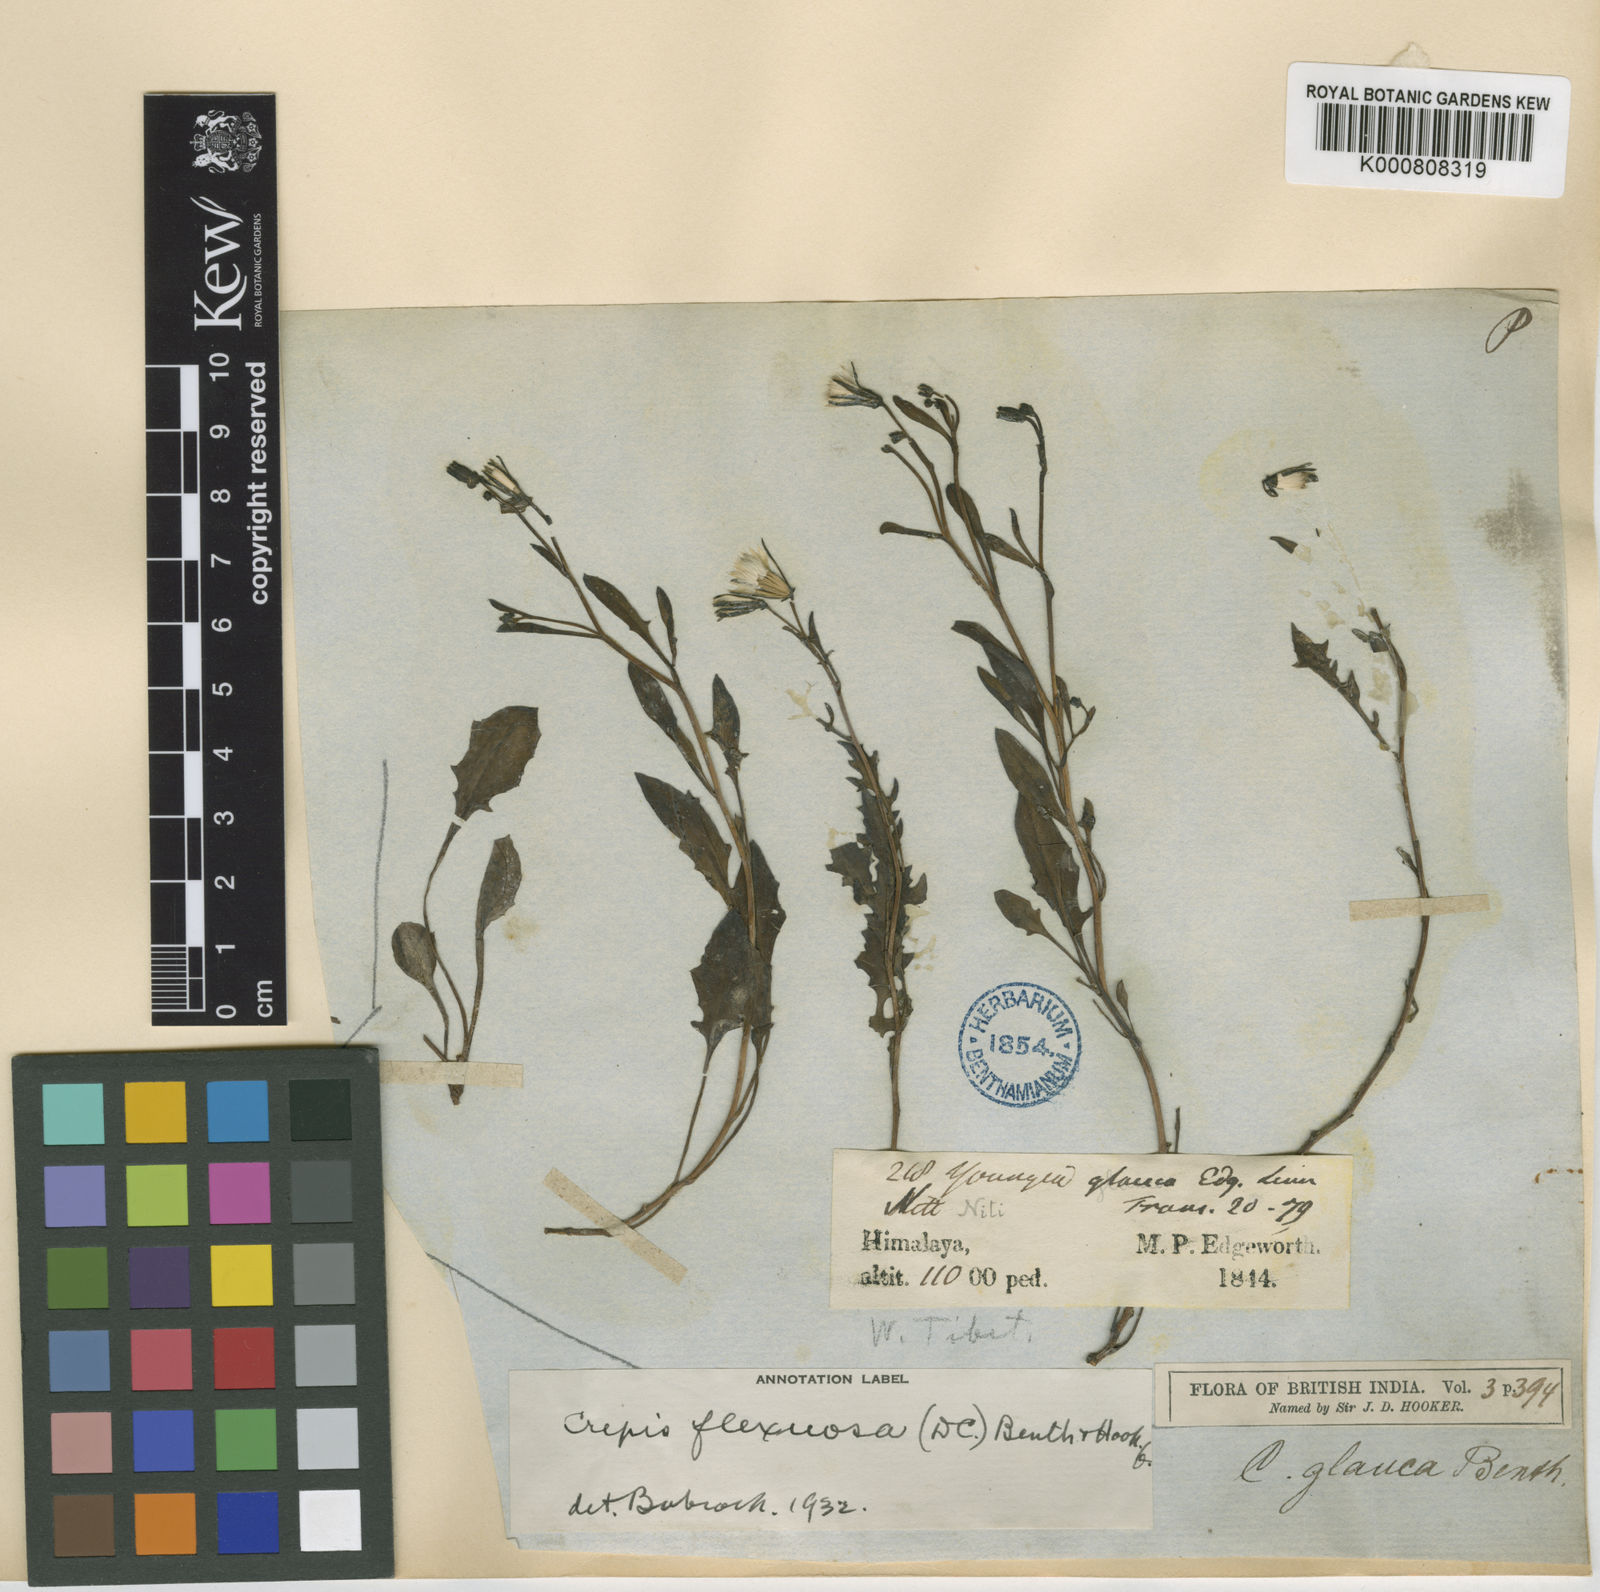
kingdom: Plantae
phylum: Tracheophyta
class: Magnoliopsida
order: Asterales
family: Asteraceae
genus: Crepis
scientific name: Crepis
